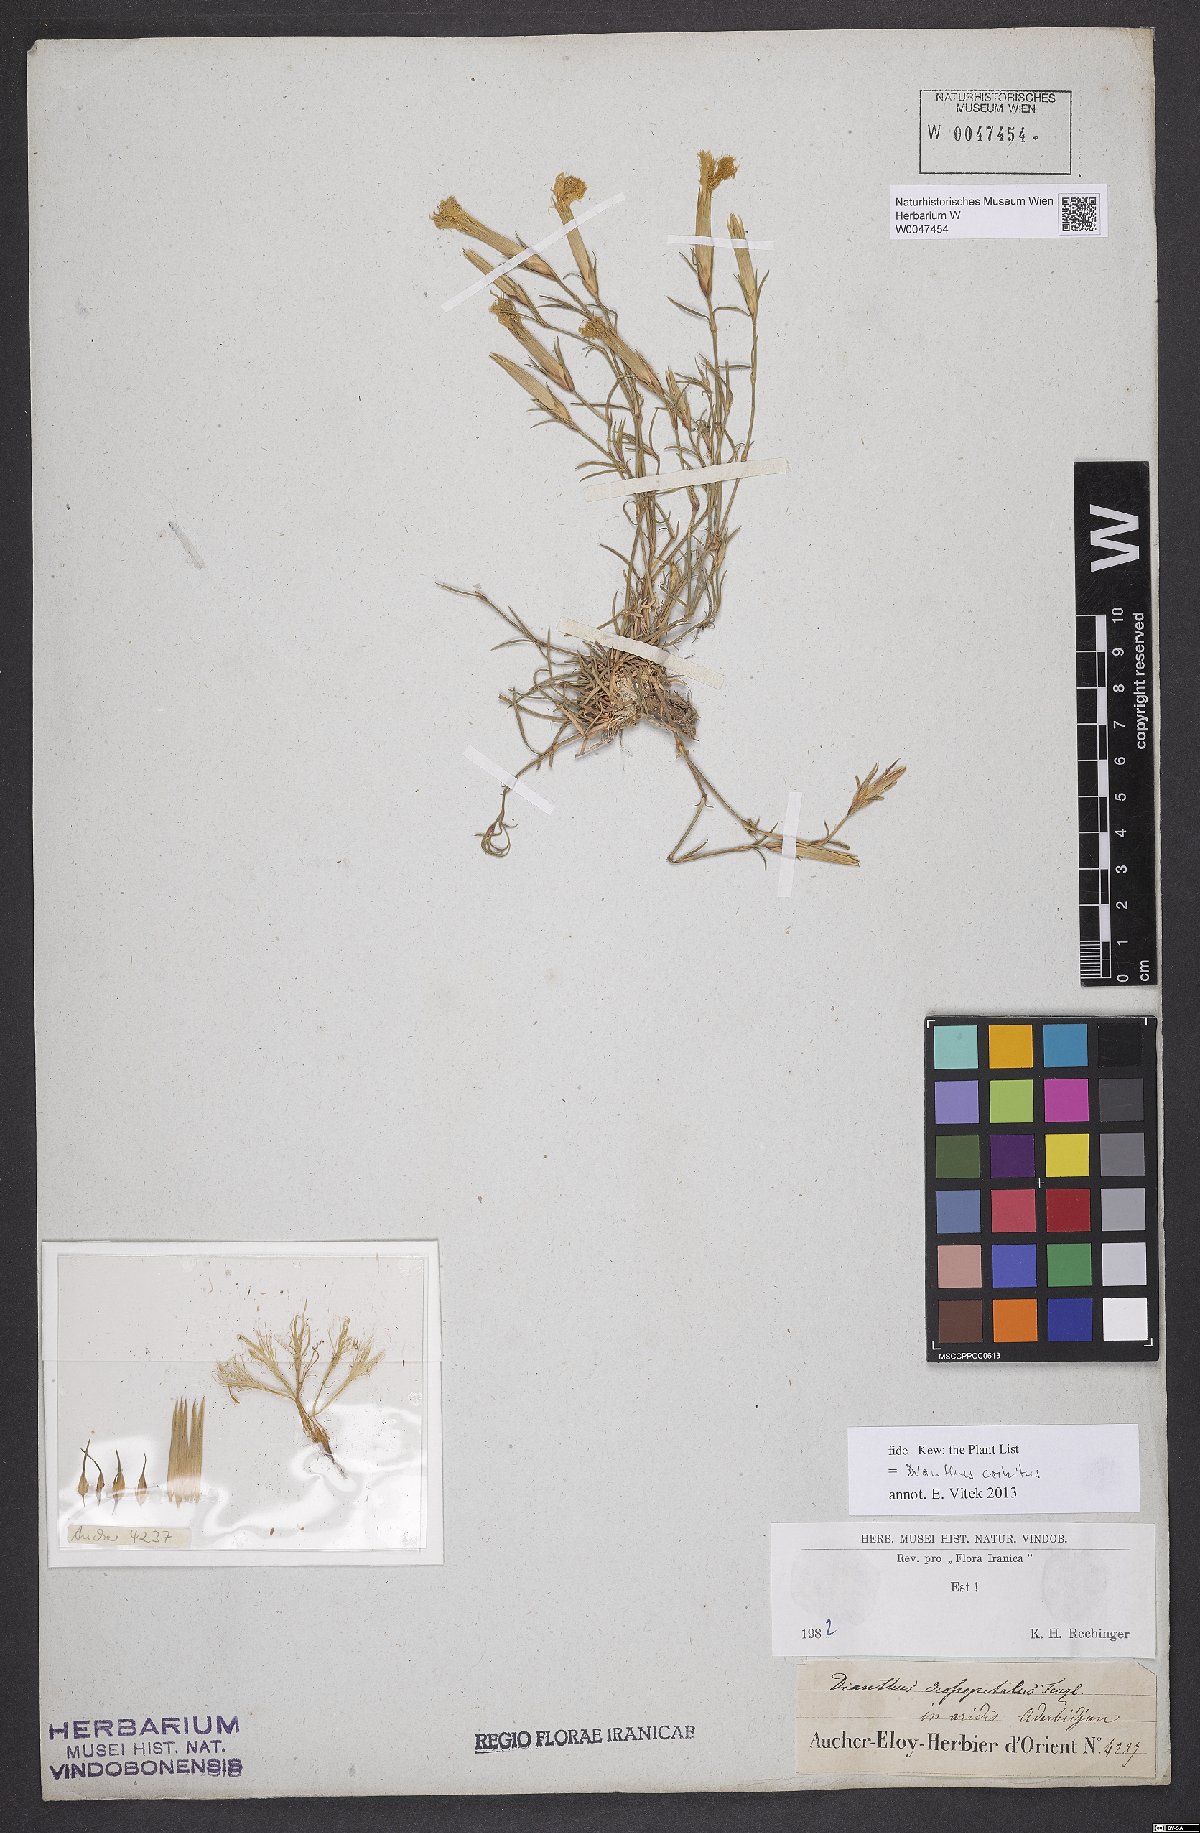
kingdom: Plantae
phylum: Tracheophyta
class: Magnoliopsida
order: Caryophyllales
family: Caryophyllaceae
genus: Dianthus
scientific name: Dianthus crossopetalus
